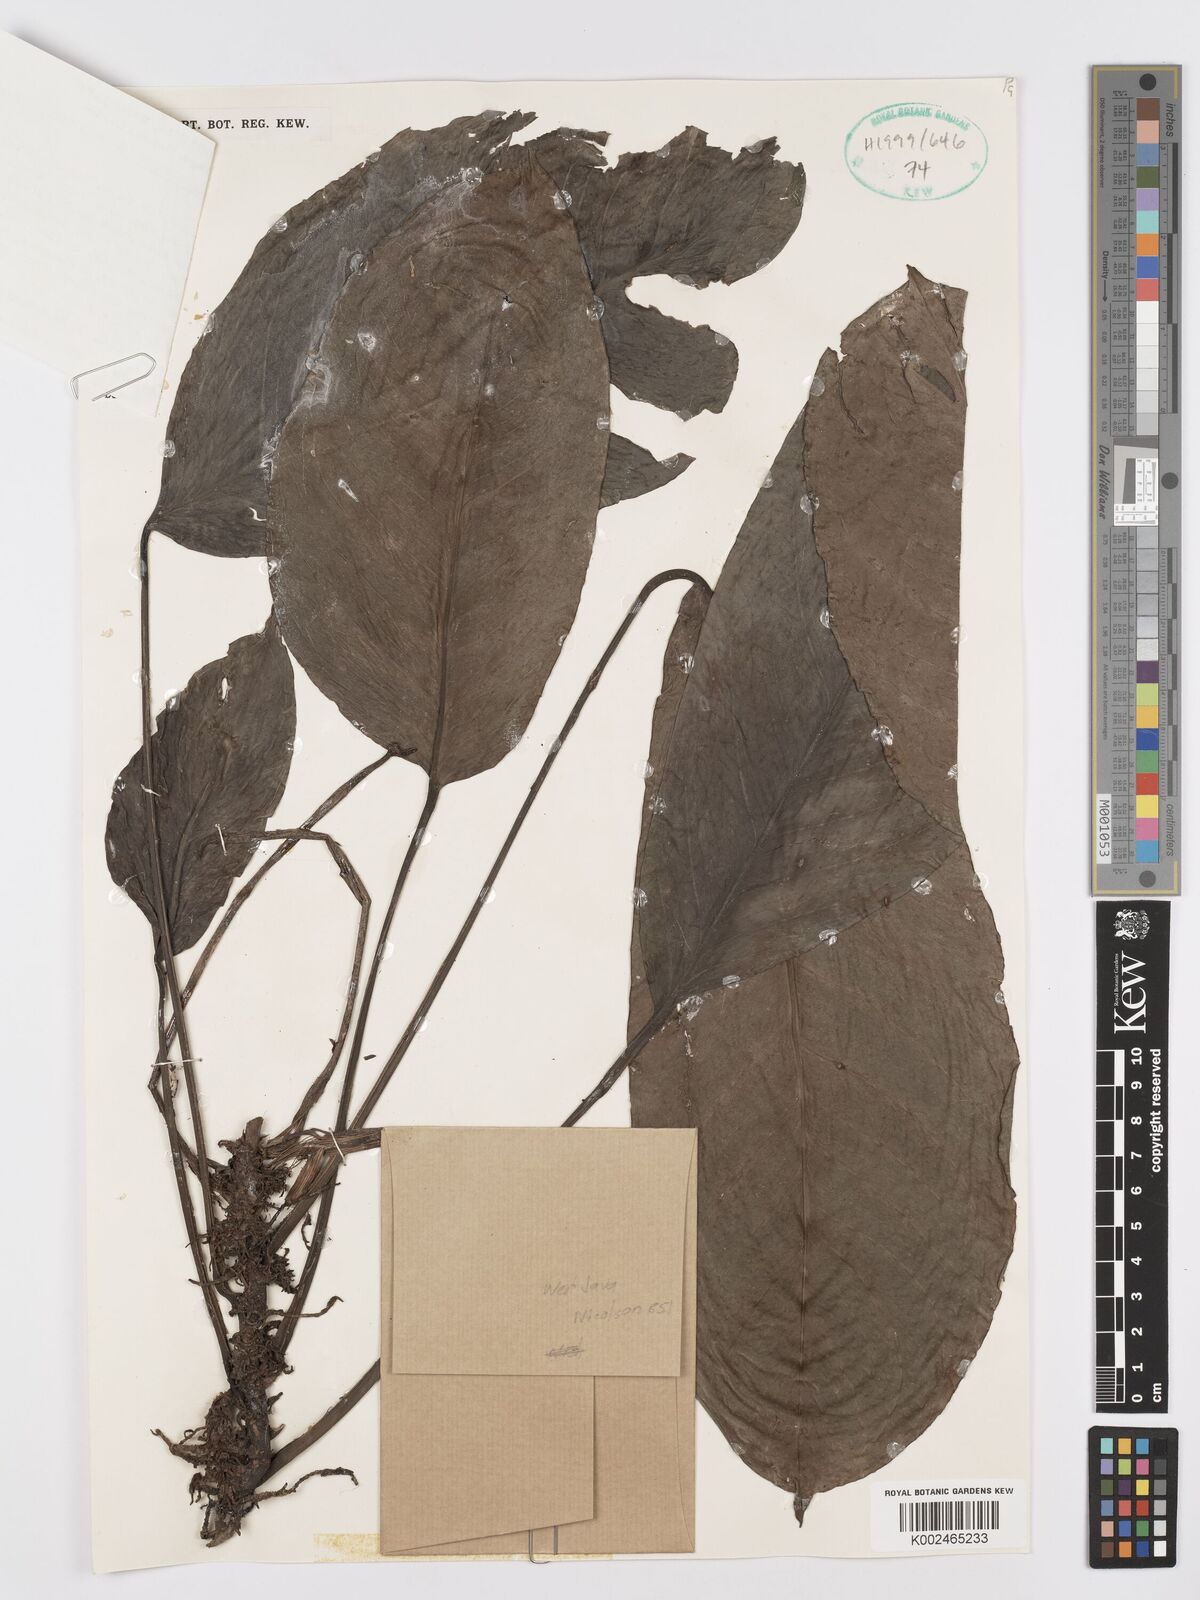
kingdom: Plantae
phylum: Tracheophyta
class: Liliopsida
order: Alismatales
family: Araceae
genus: Anadendrum
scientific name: Anadendrum microstachyum
